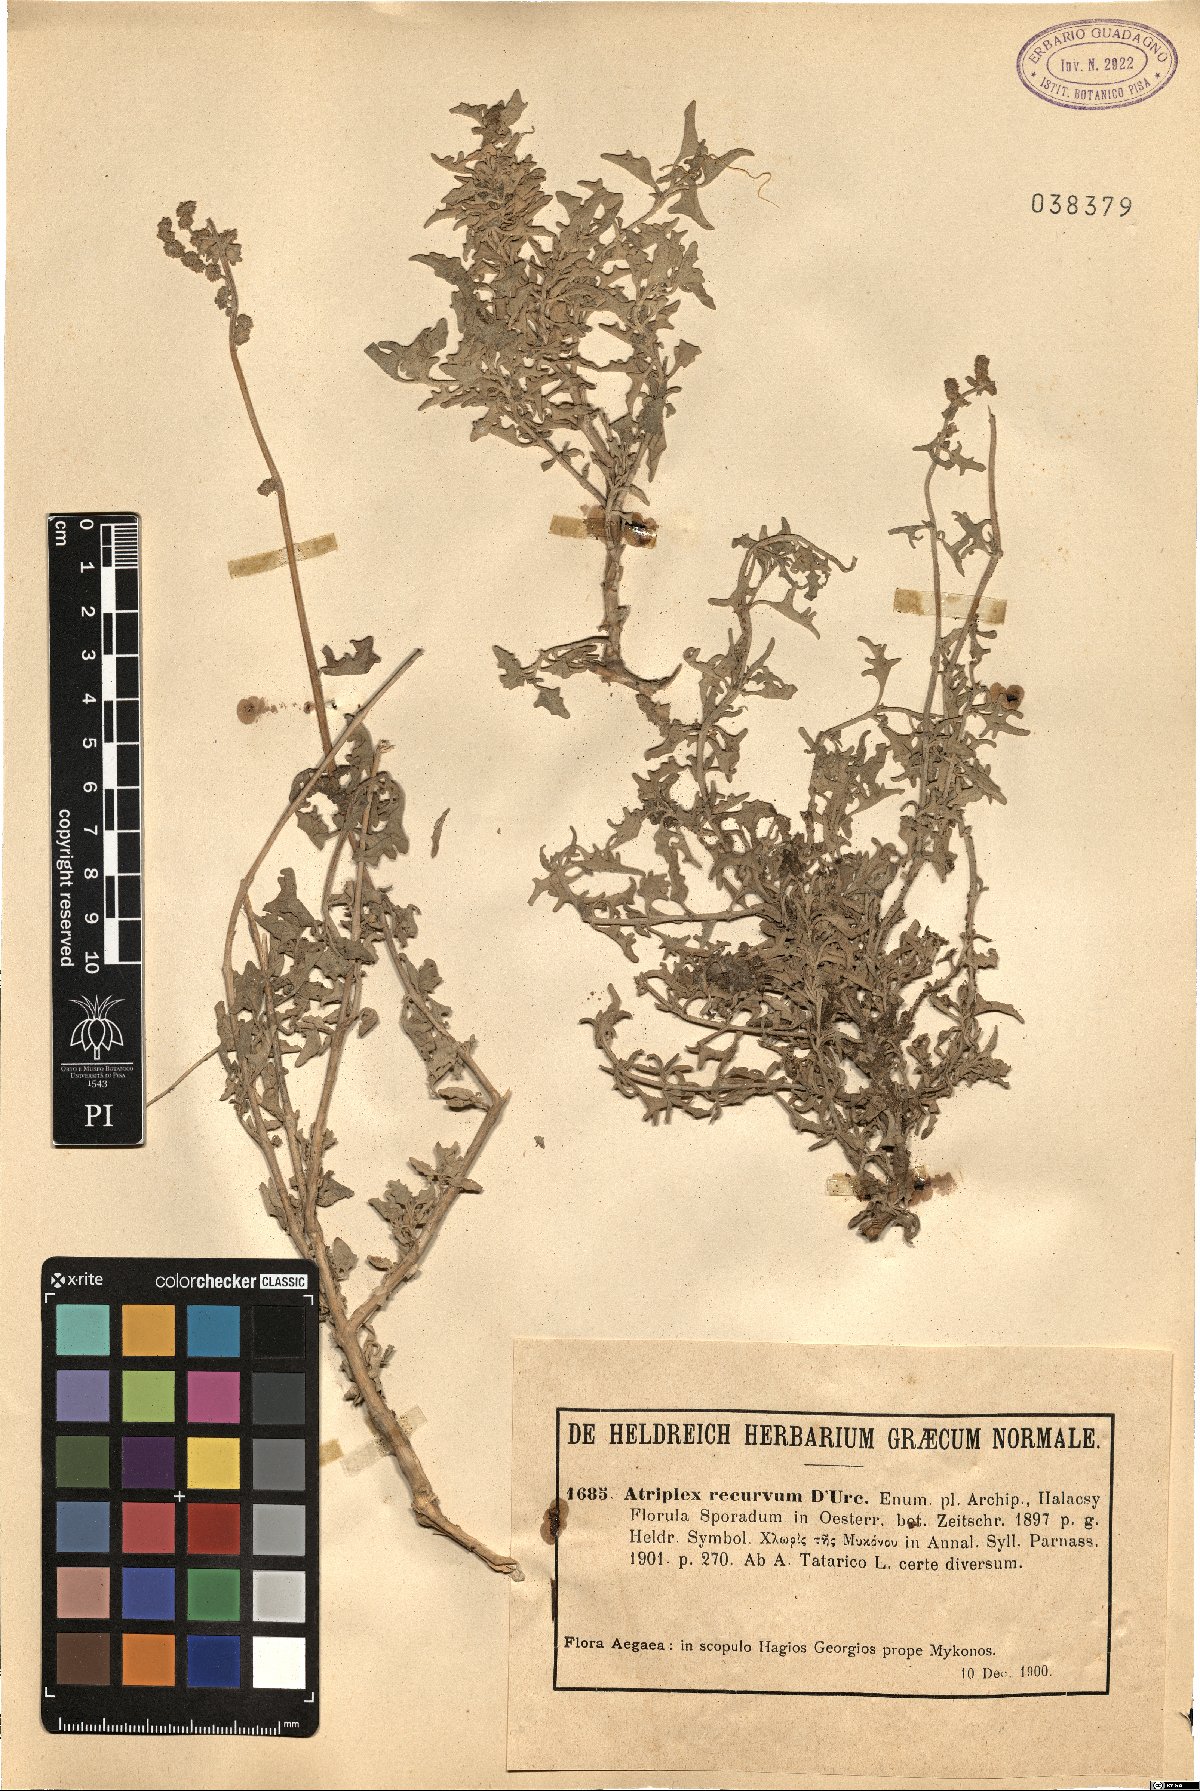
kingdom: Plantae
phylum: Tracheophyta
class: Magnoliopsida
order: Caryophyllales
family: Amaranthaceae
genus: Atriplex
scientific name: Atriplex recurva
